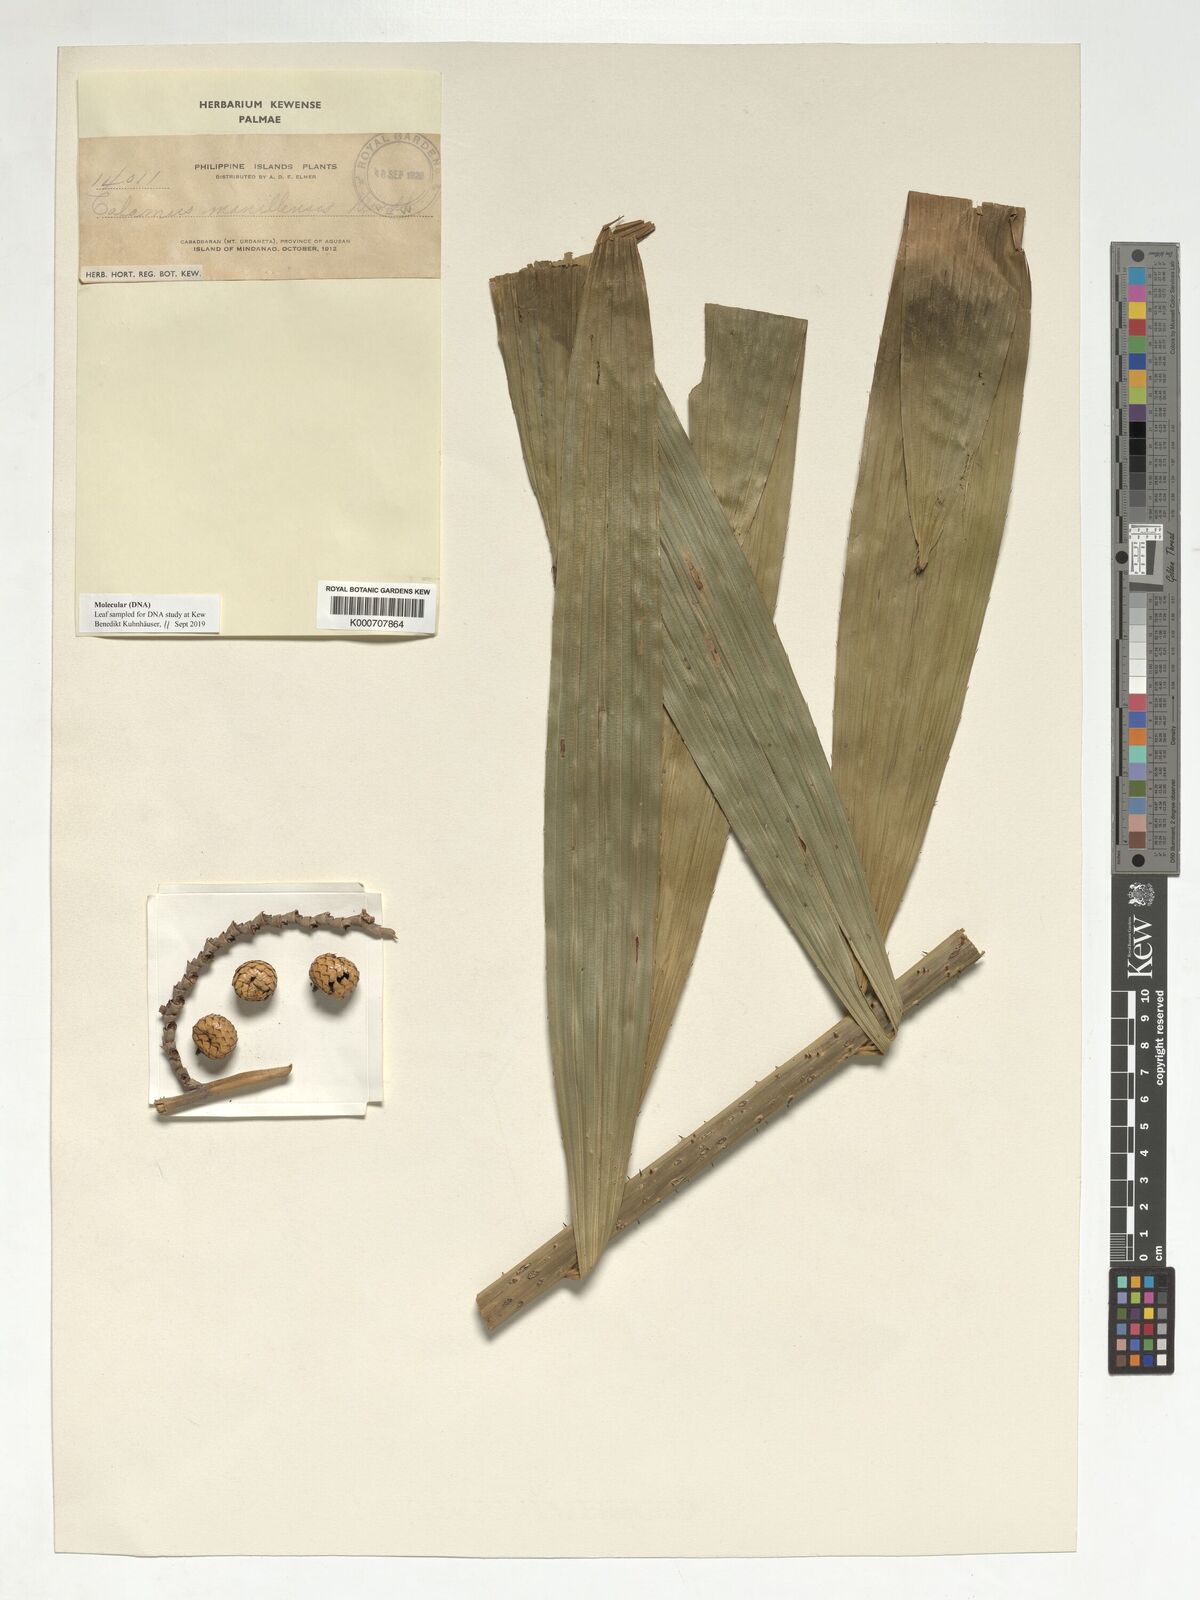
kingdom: Plantae
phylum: Tracheophyta
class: Liliopsida
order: Arecales
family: Arecaceae
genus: Calamus
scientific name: Calamus manillensis
